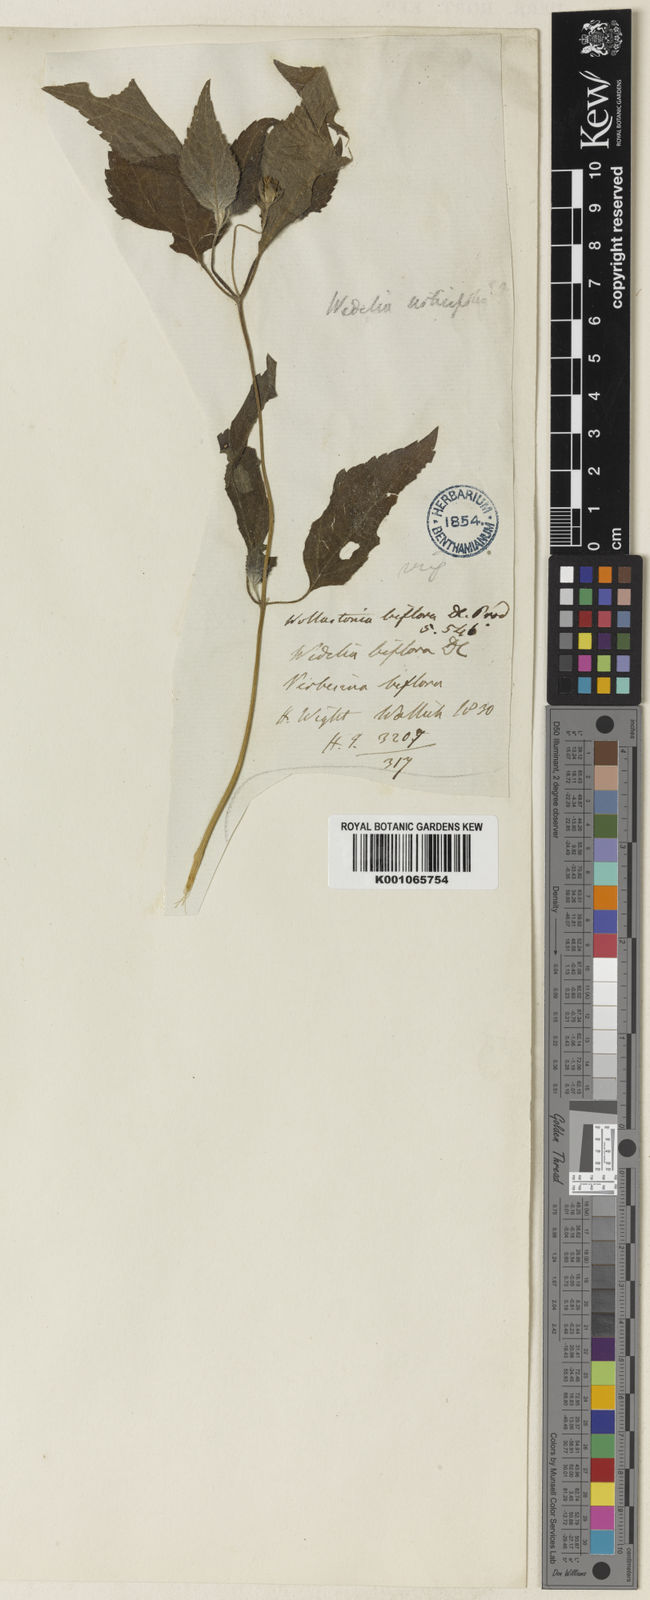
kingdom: Plantae
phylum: Tracheophyta
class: Magnoliopsida
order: Asterales
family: Asteraceae
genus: Wollastonia
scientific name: Wollastonia biflora
